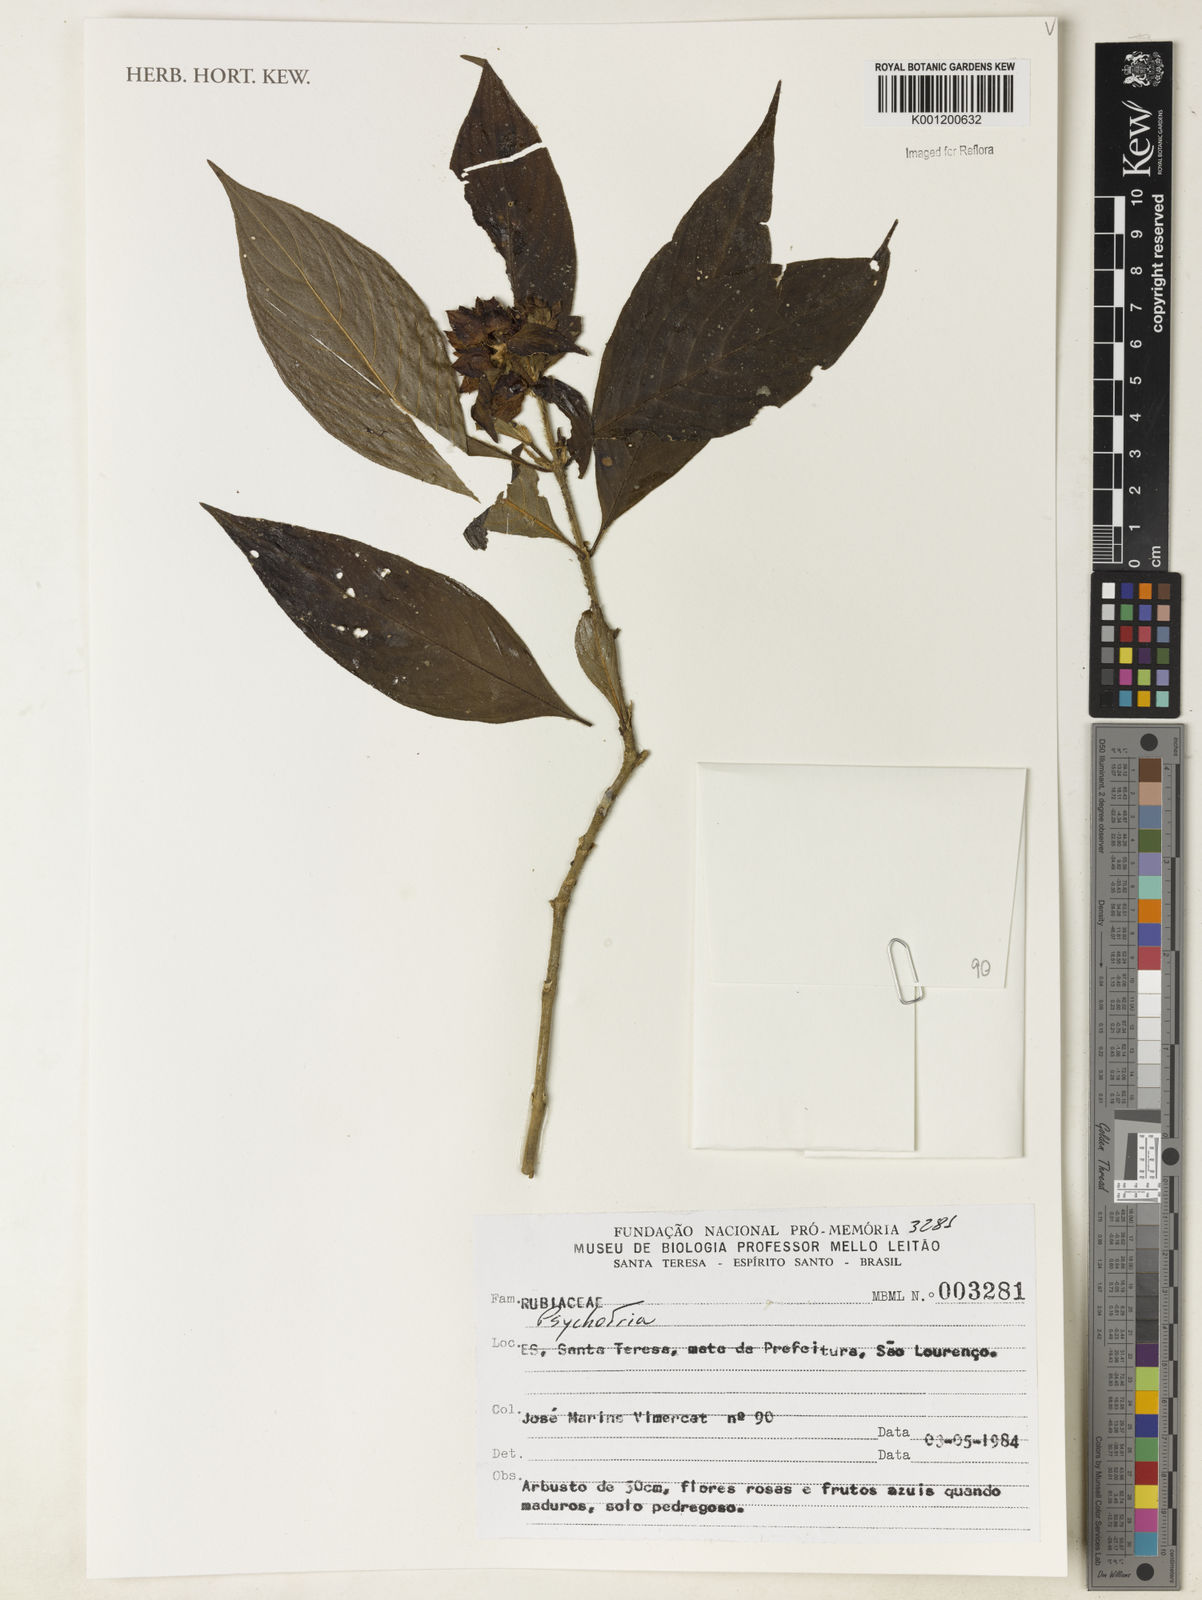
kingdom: Plantae
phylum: Tracheophyta
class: Magnoliopsida
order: Gentianales
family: Rubiaceae
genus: Psychotria
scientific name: Psychotria
